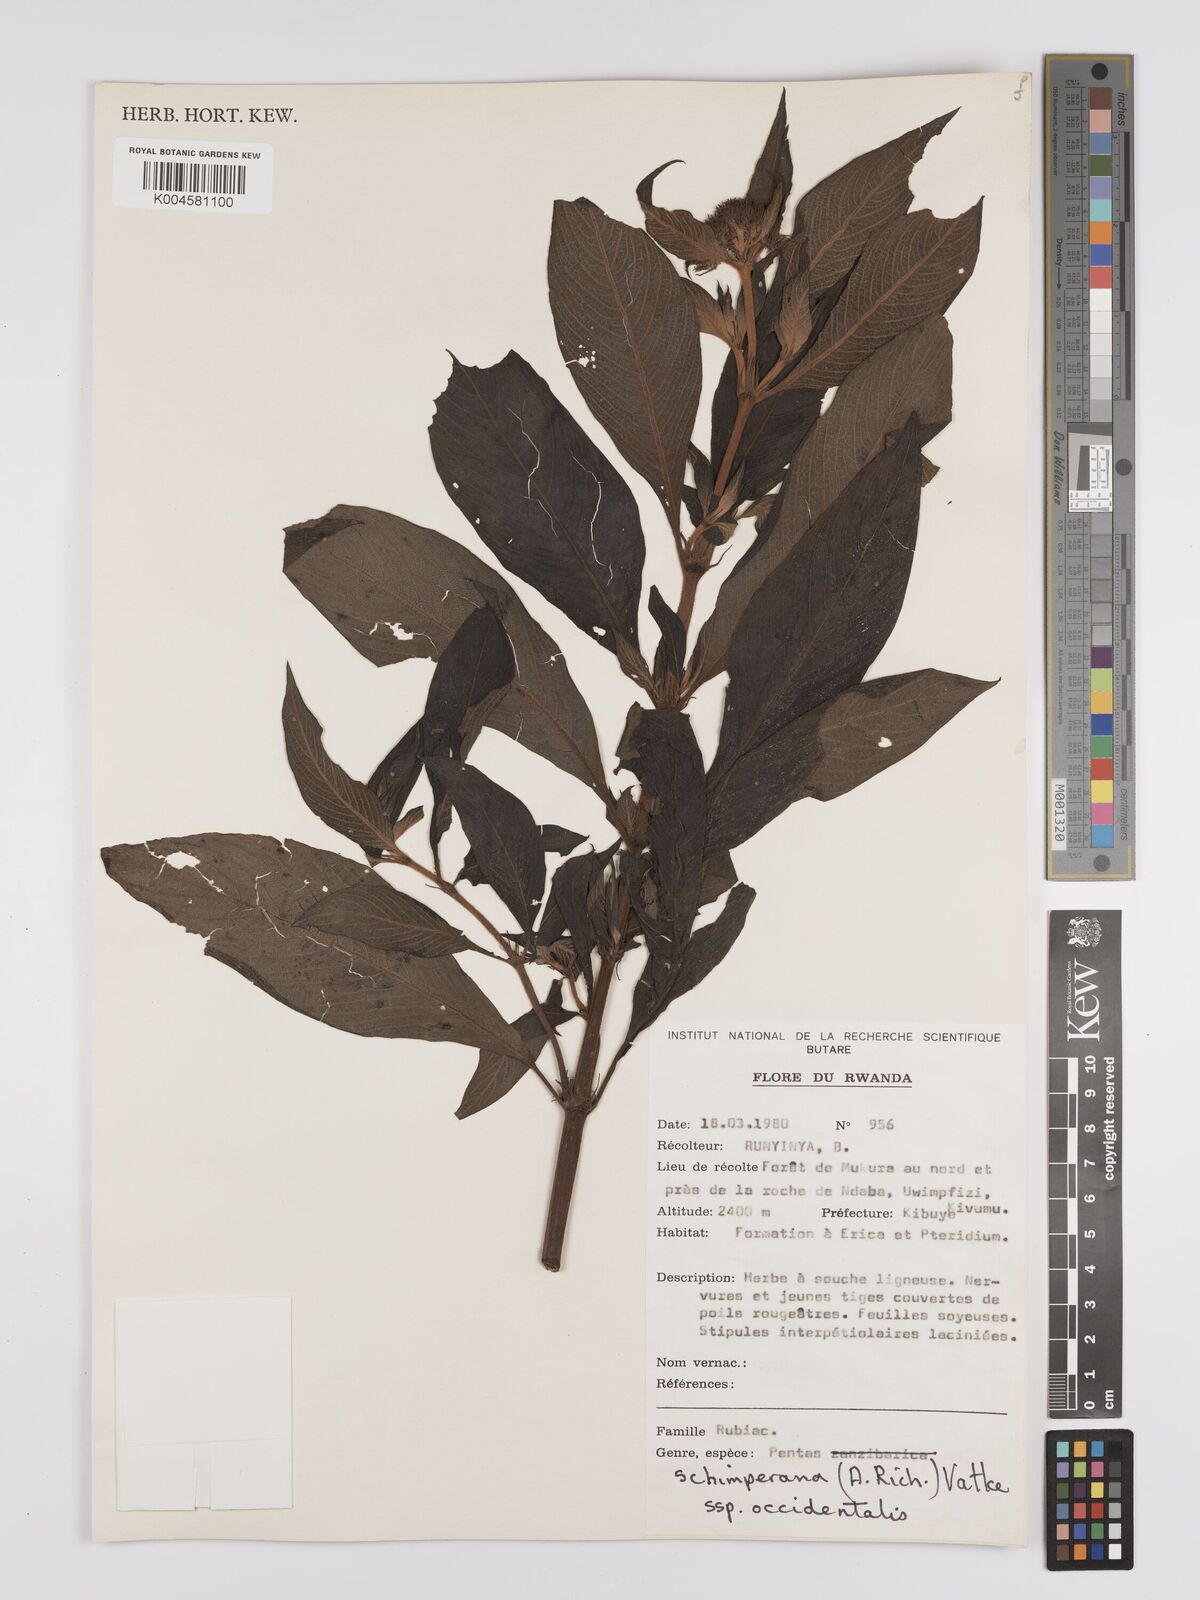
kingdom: Plantae
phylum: Tracheophyta
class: Magnoliopsida
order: Gentianales
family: Rubiaceae
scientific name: Rubiaceae
